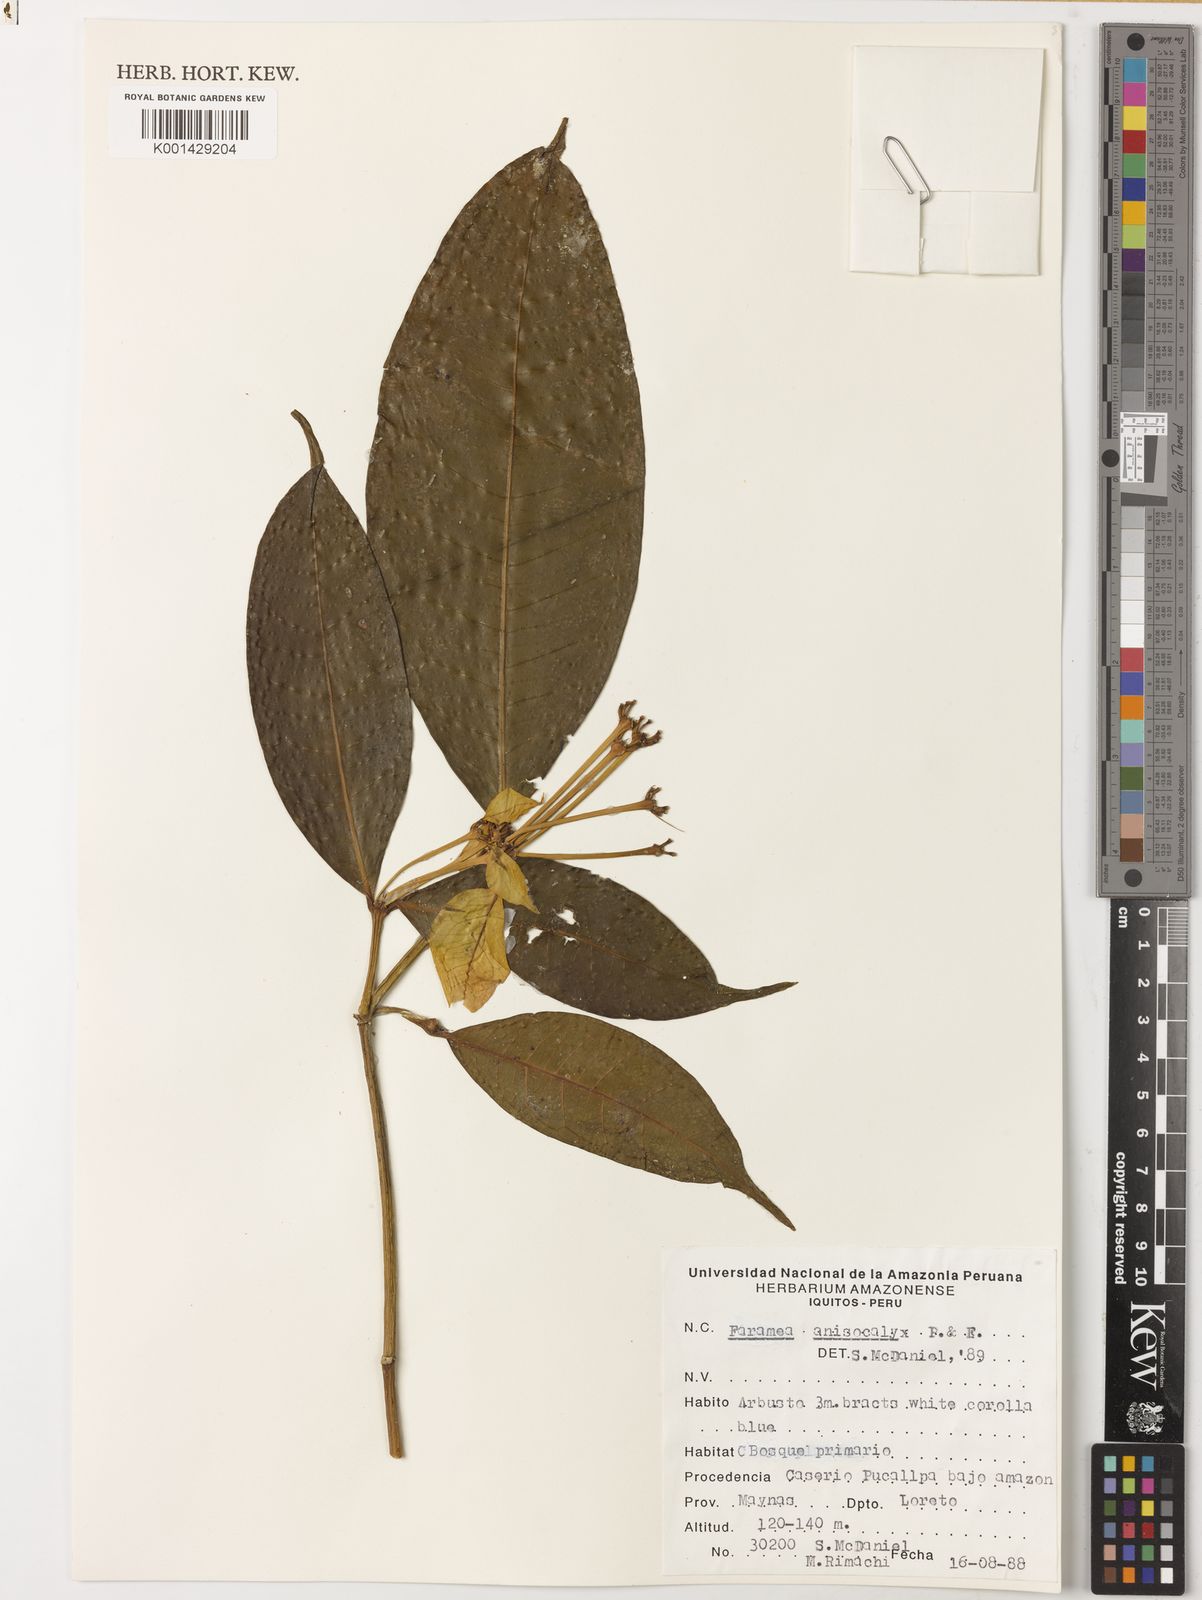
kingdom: Plantae
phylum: Tracheophyta
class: Magnoliopsida
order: Gentianales
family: Rubiaceae
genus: Faramea
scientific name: Faramea anisocalyx
